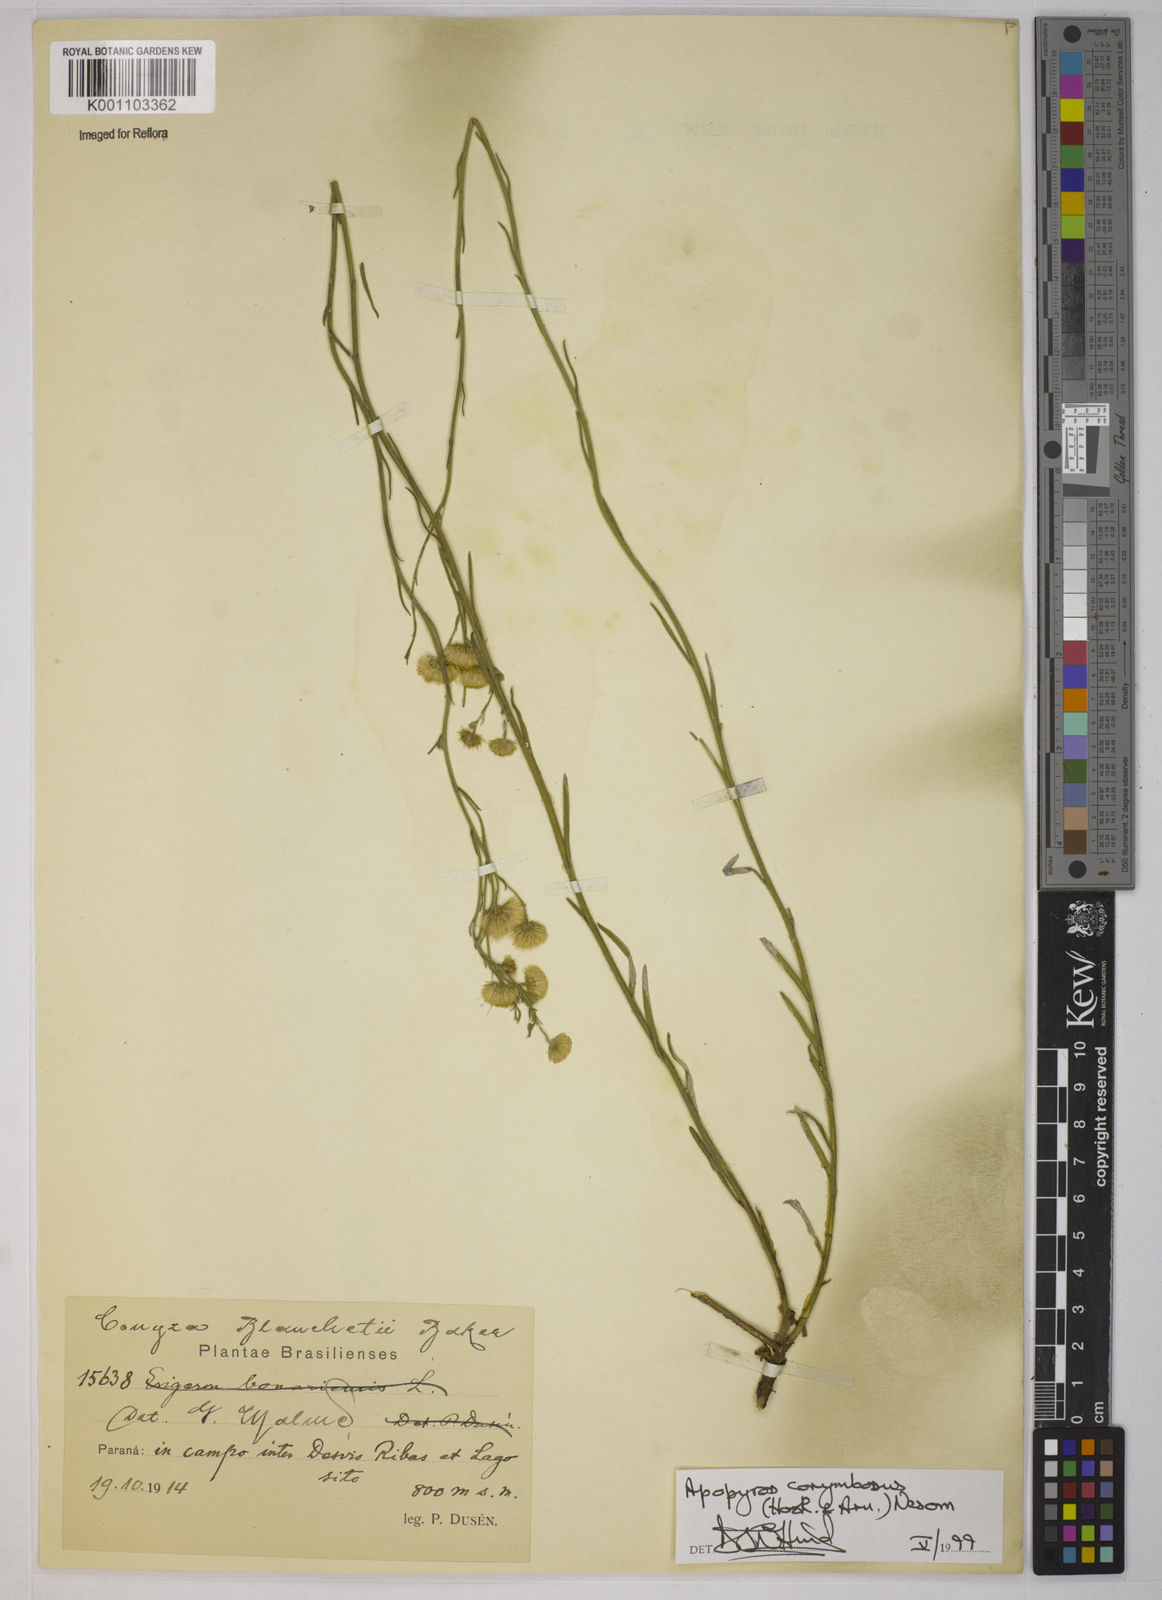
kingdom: Plantae
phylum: Tracheophyta
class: Magnoliopsida
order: Asterales
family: Asteraceae
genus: Apopyros
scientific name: Apopyros corymbosus
